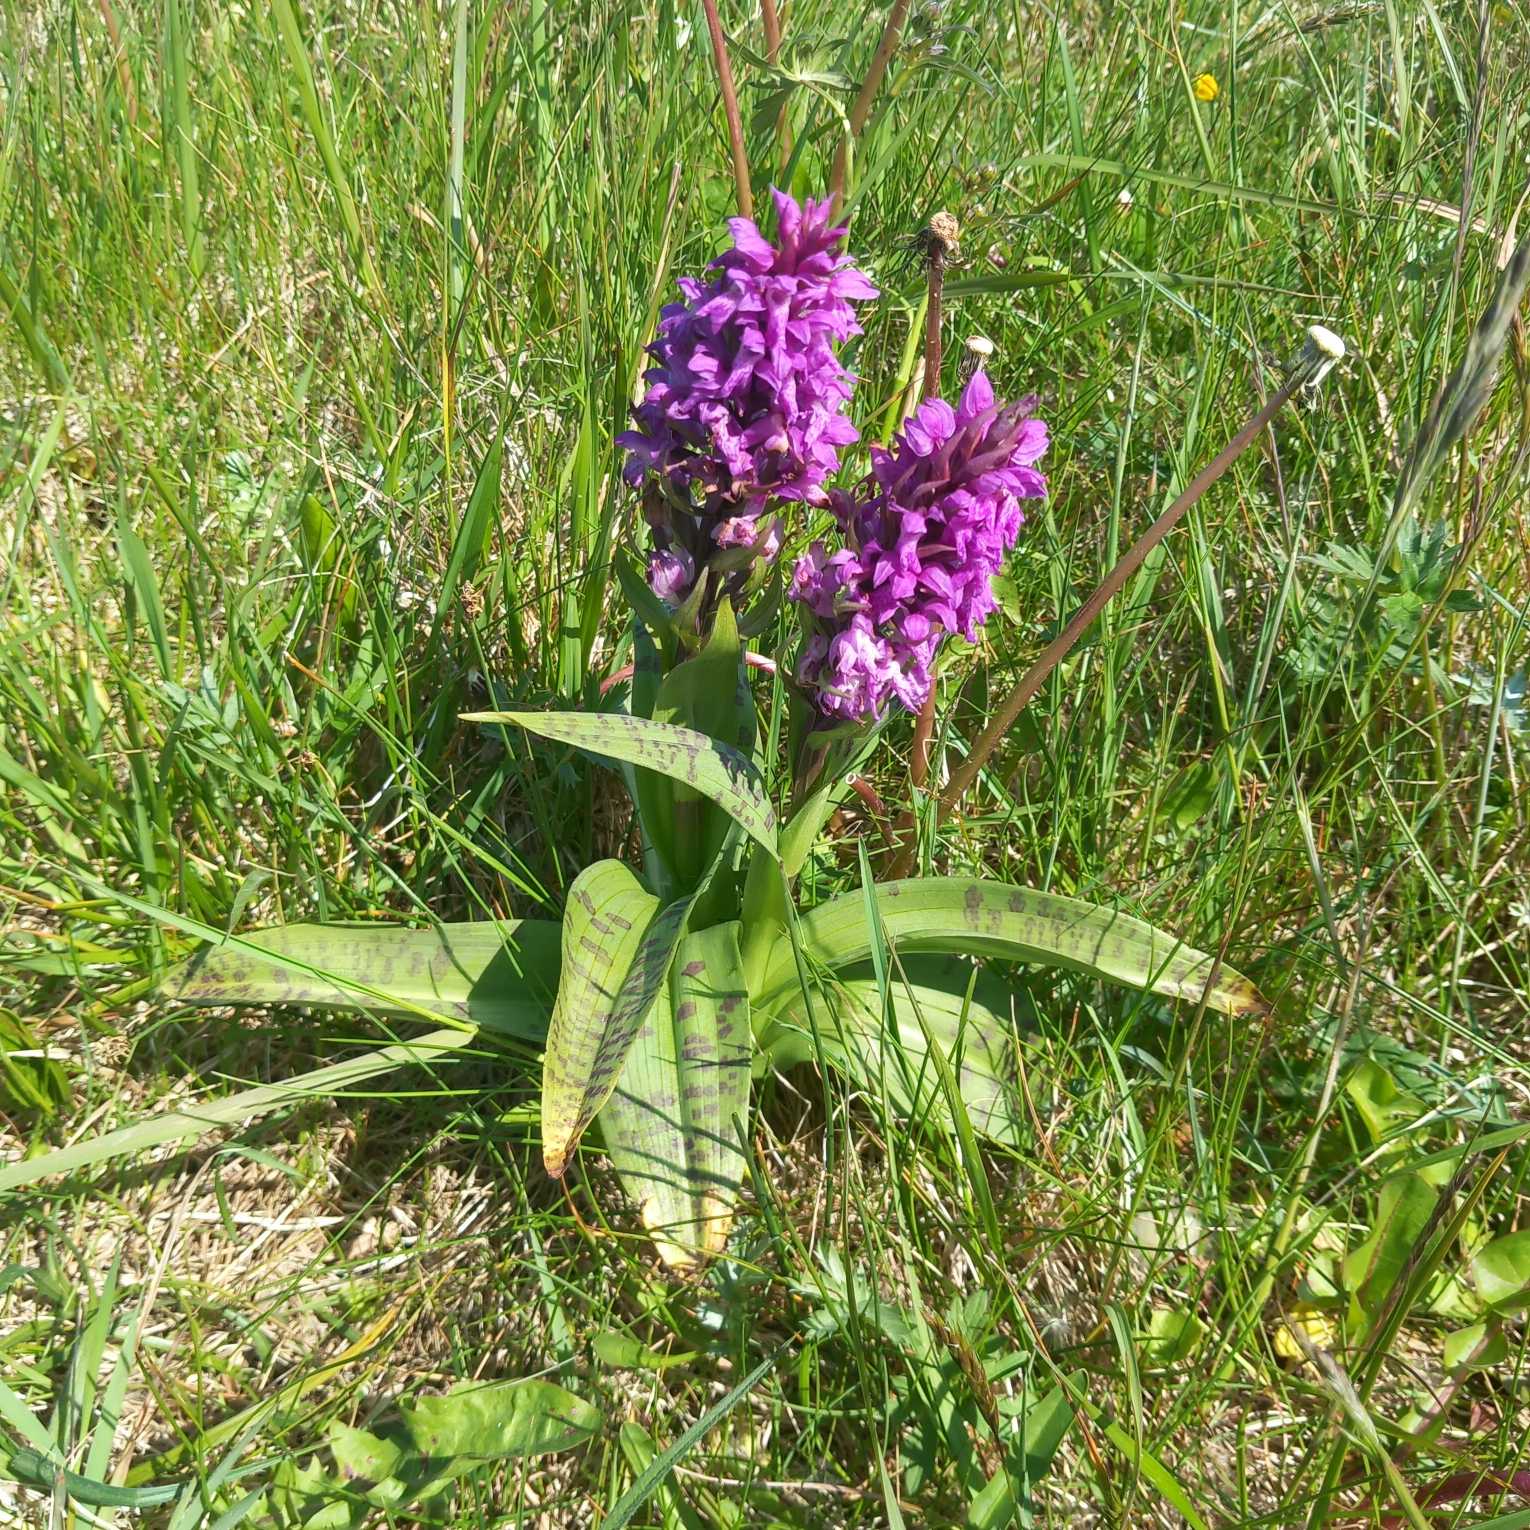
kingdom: Plantae
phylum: Tracheophyta
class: Liliopsida
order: Asparagales
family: Orchidaceae
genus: Dactylorhiza
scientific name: Dactylorhiza majalis
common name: Maj-gøgeurt
